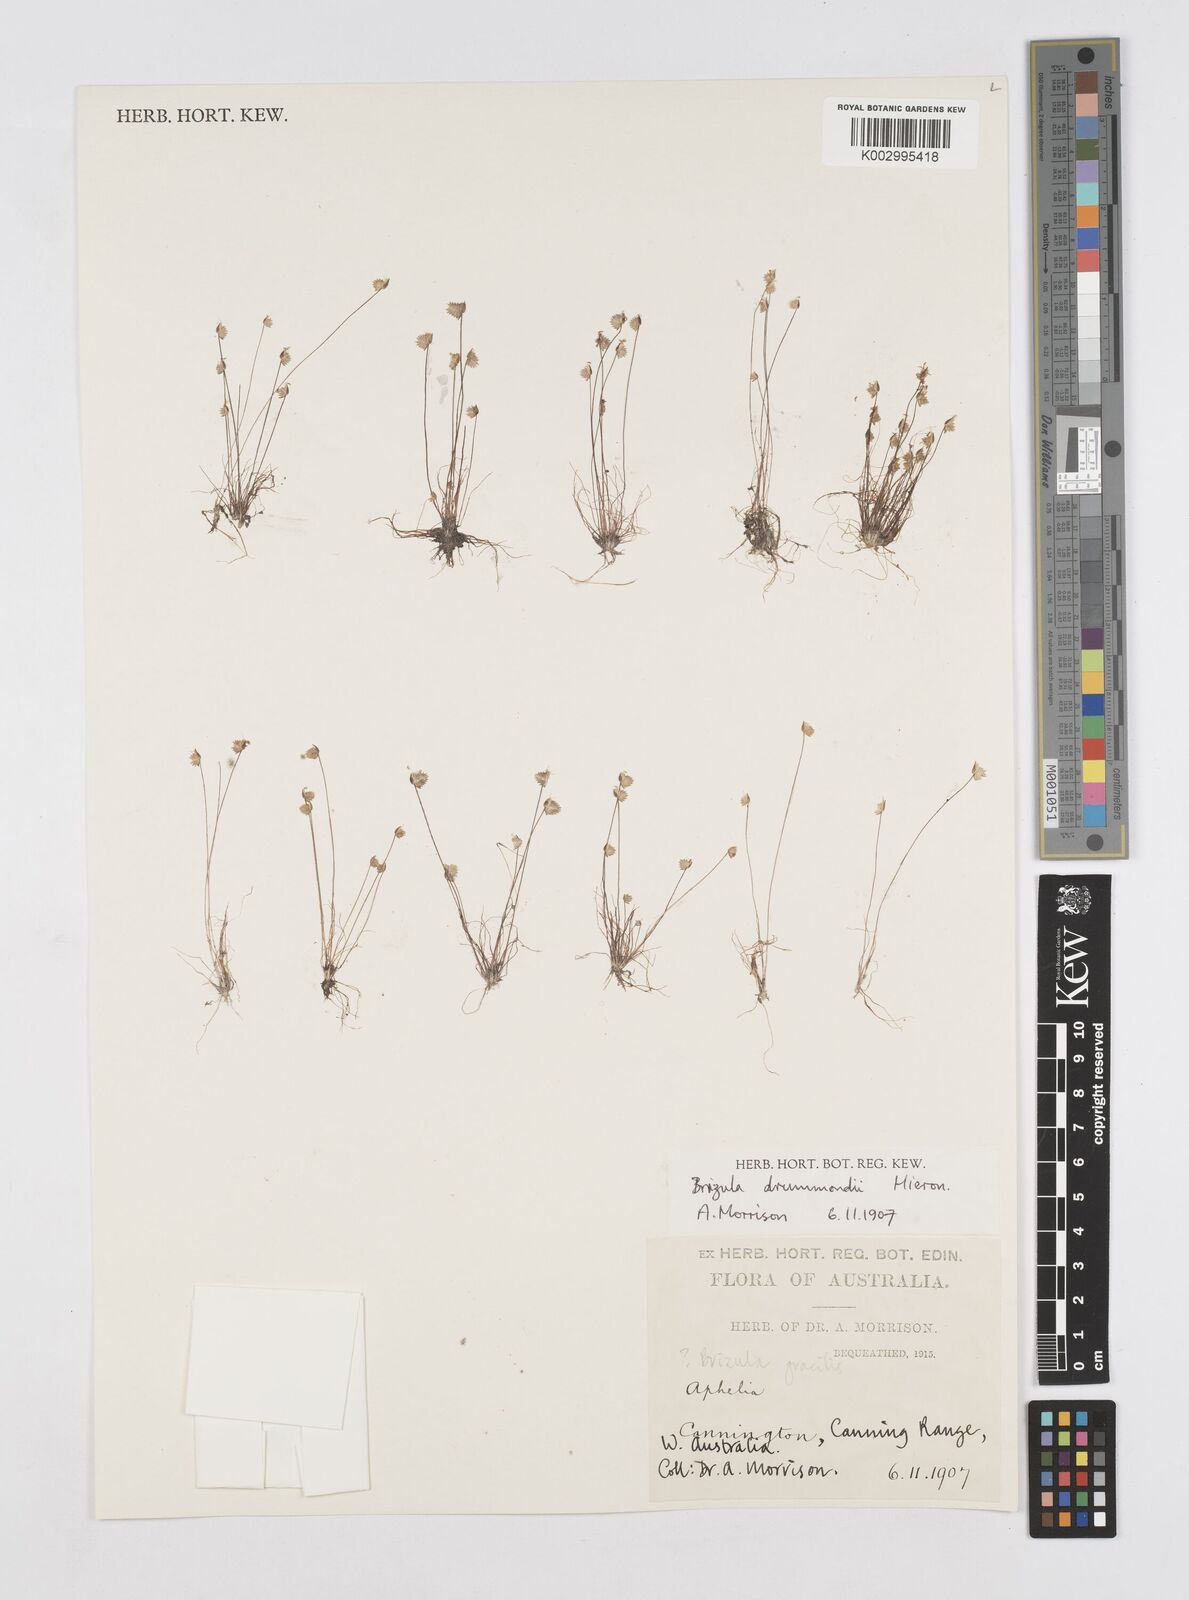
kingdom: Plantae
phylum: Tracheophyta
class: Liliopsida
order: Poales
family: Restionaceae
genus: Aphelia
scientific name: Aphelia drummondii
